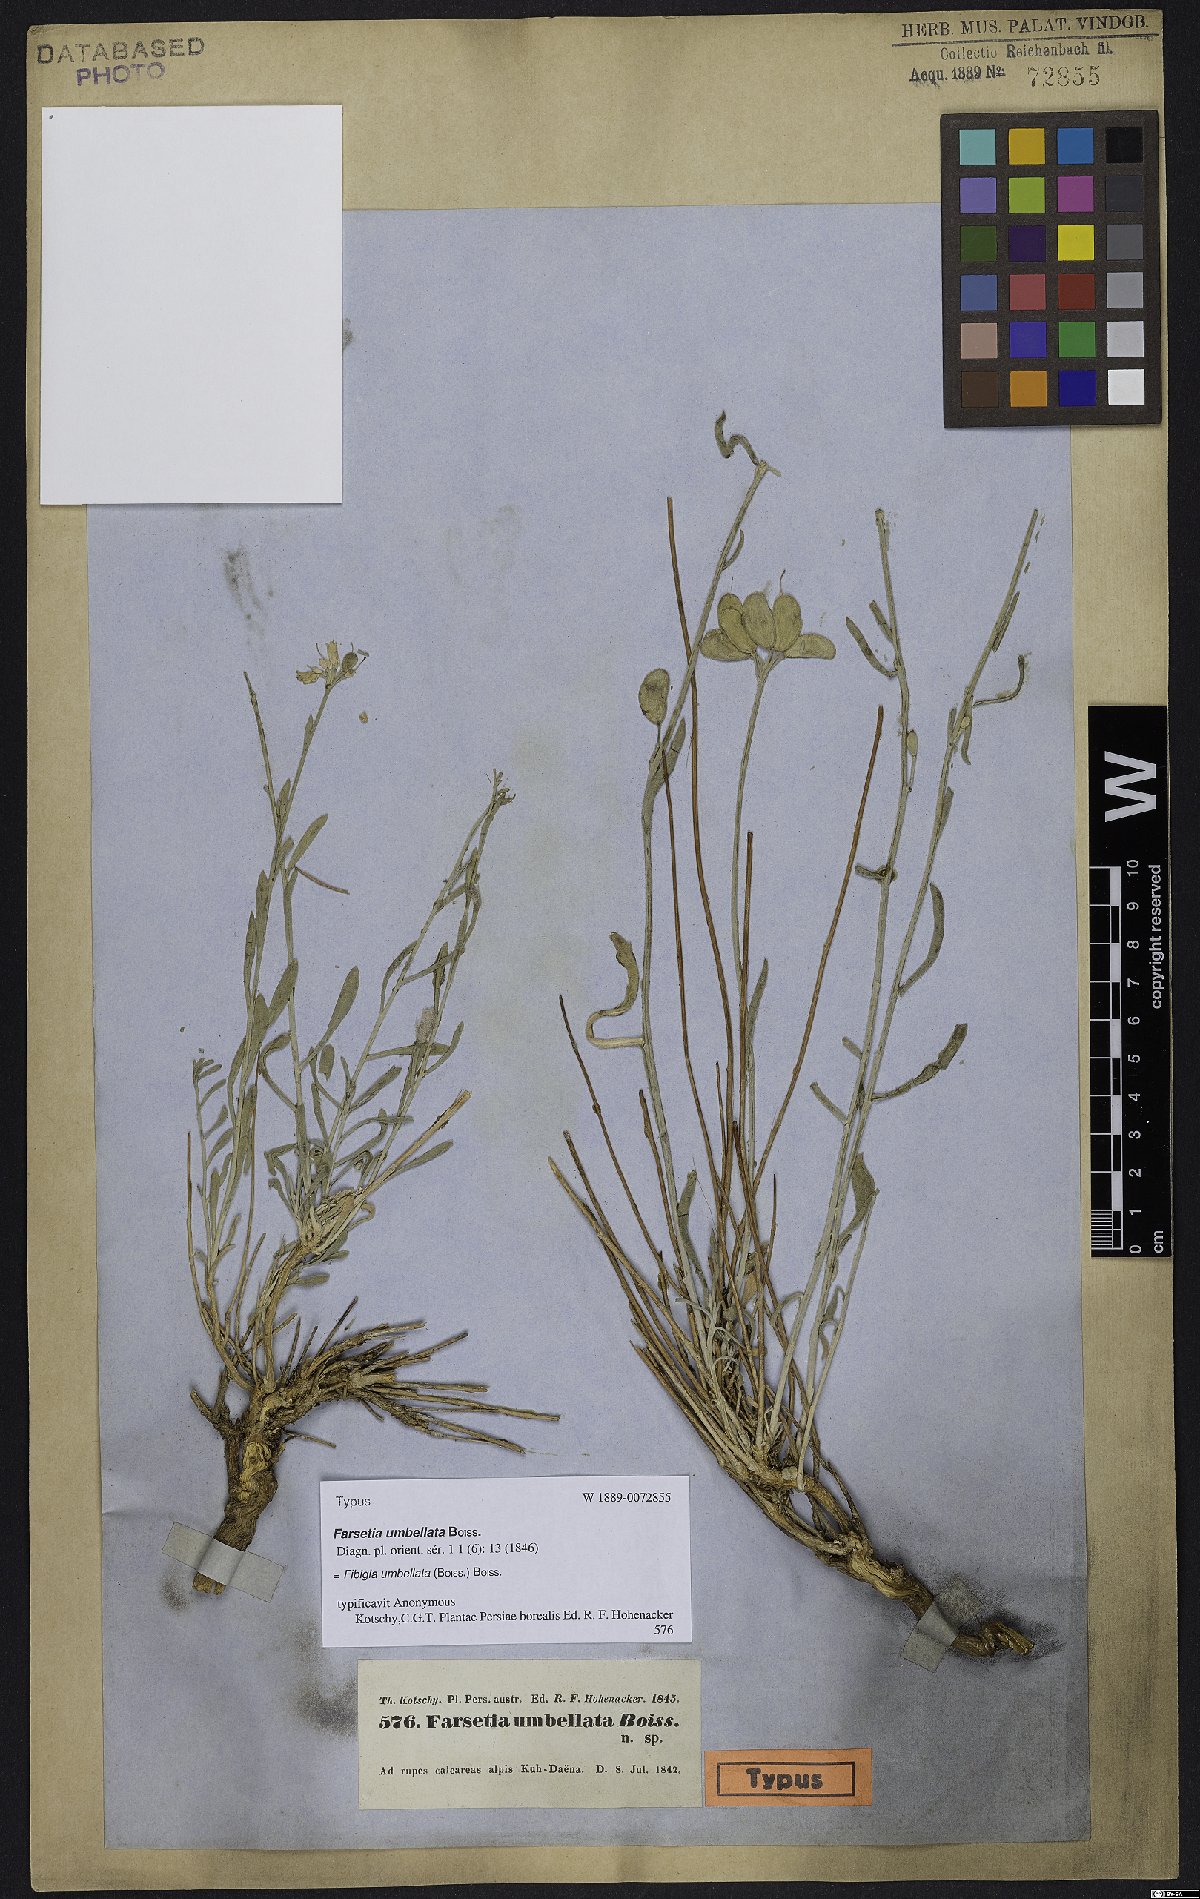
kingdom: Plantae
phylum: Tracheophyta
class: Magnoliopsida
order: Brassicales
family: Brassicaceae
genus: Irania
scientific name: Irania umbellata
